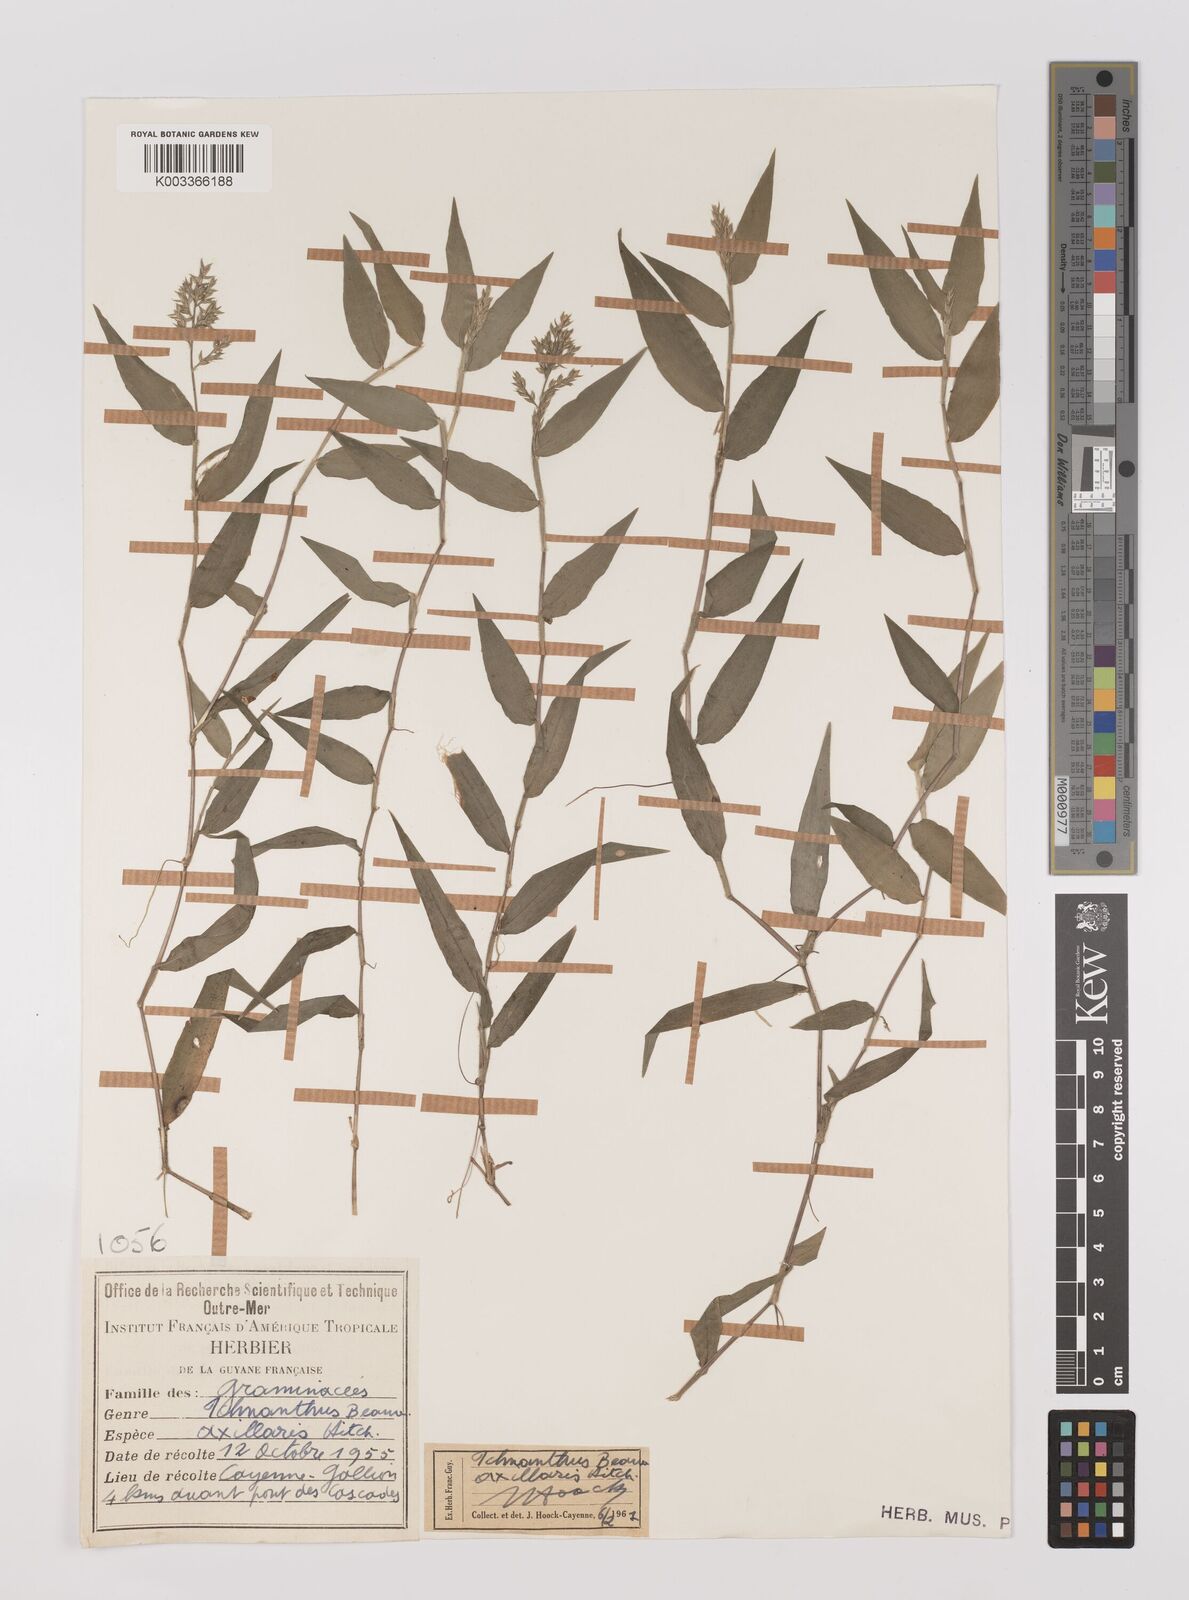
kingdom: Plantae
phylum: Tracheophyta
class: Liliopsida
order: Poales
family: Poaceae
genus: Ichnanthus
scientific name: Ichnanthus pallens
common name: Water grass
